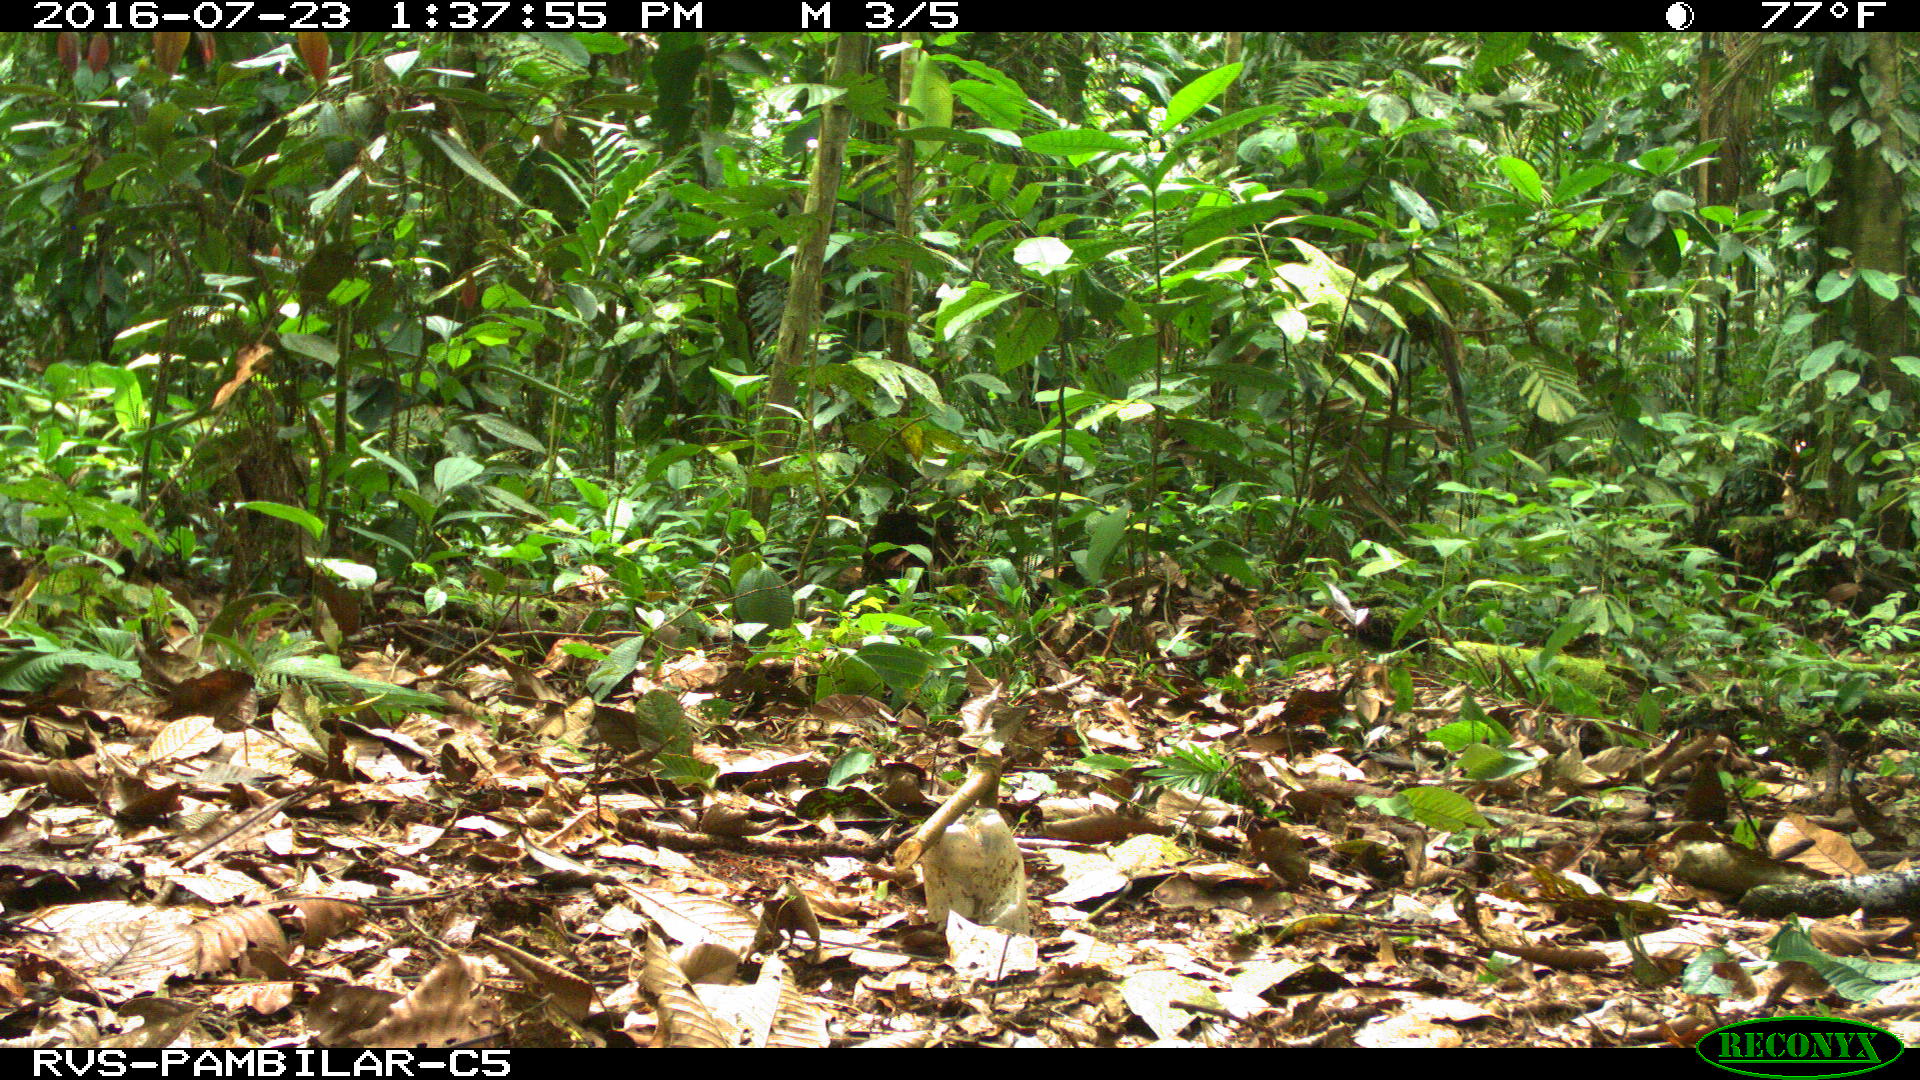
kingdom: Animalia
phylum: Chordata
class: Mammalia
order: Artiodactyla
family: Tayassuidae
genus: Tayassu
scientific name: Tayassu pecari
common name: White-lipped peccary
